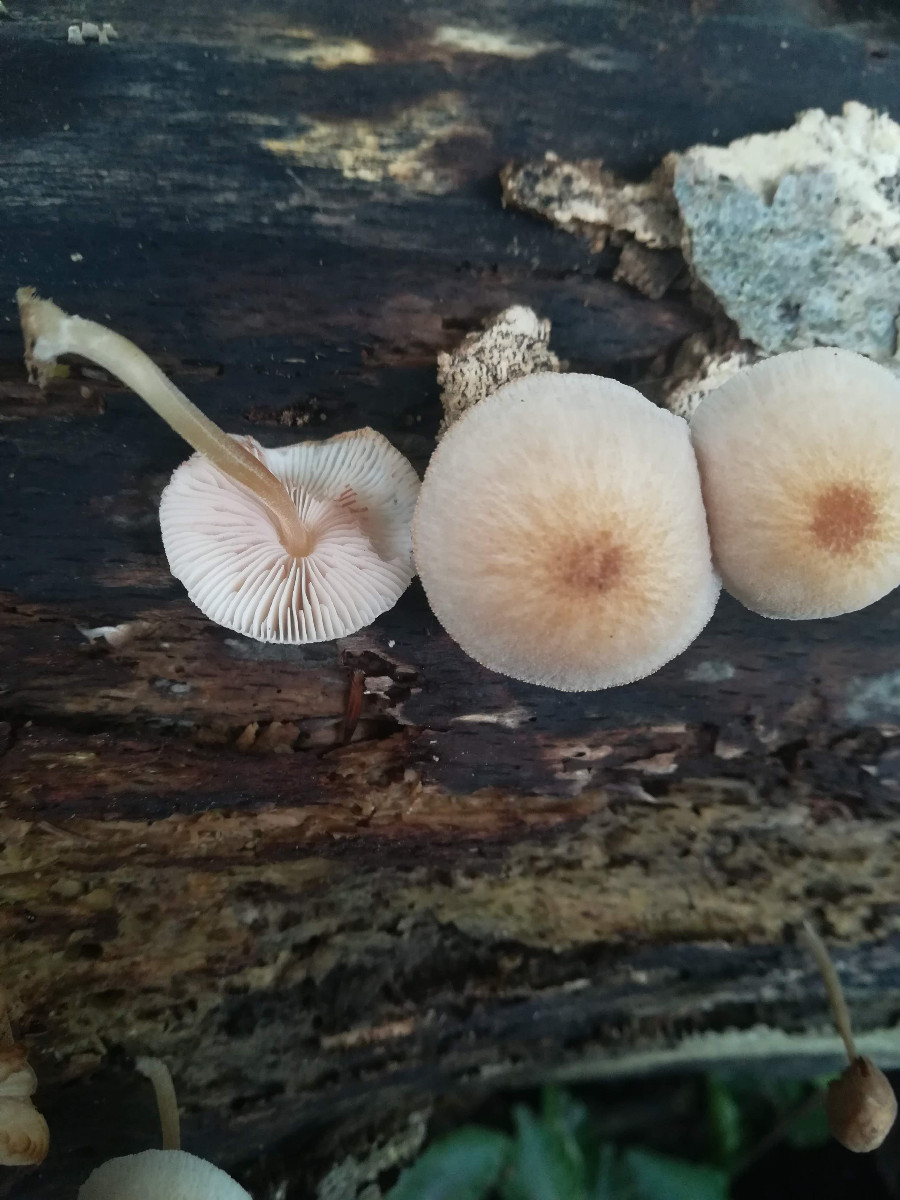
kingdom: Fungi
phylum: Basidiomycota
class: Agaricomycetes
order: Agaricales
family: Pluteaceae
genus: Pluteus
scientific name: Pluteus
